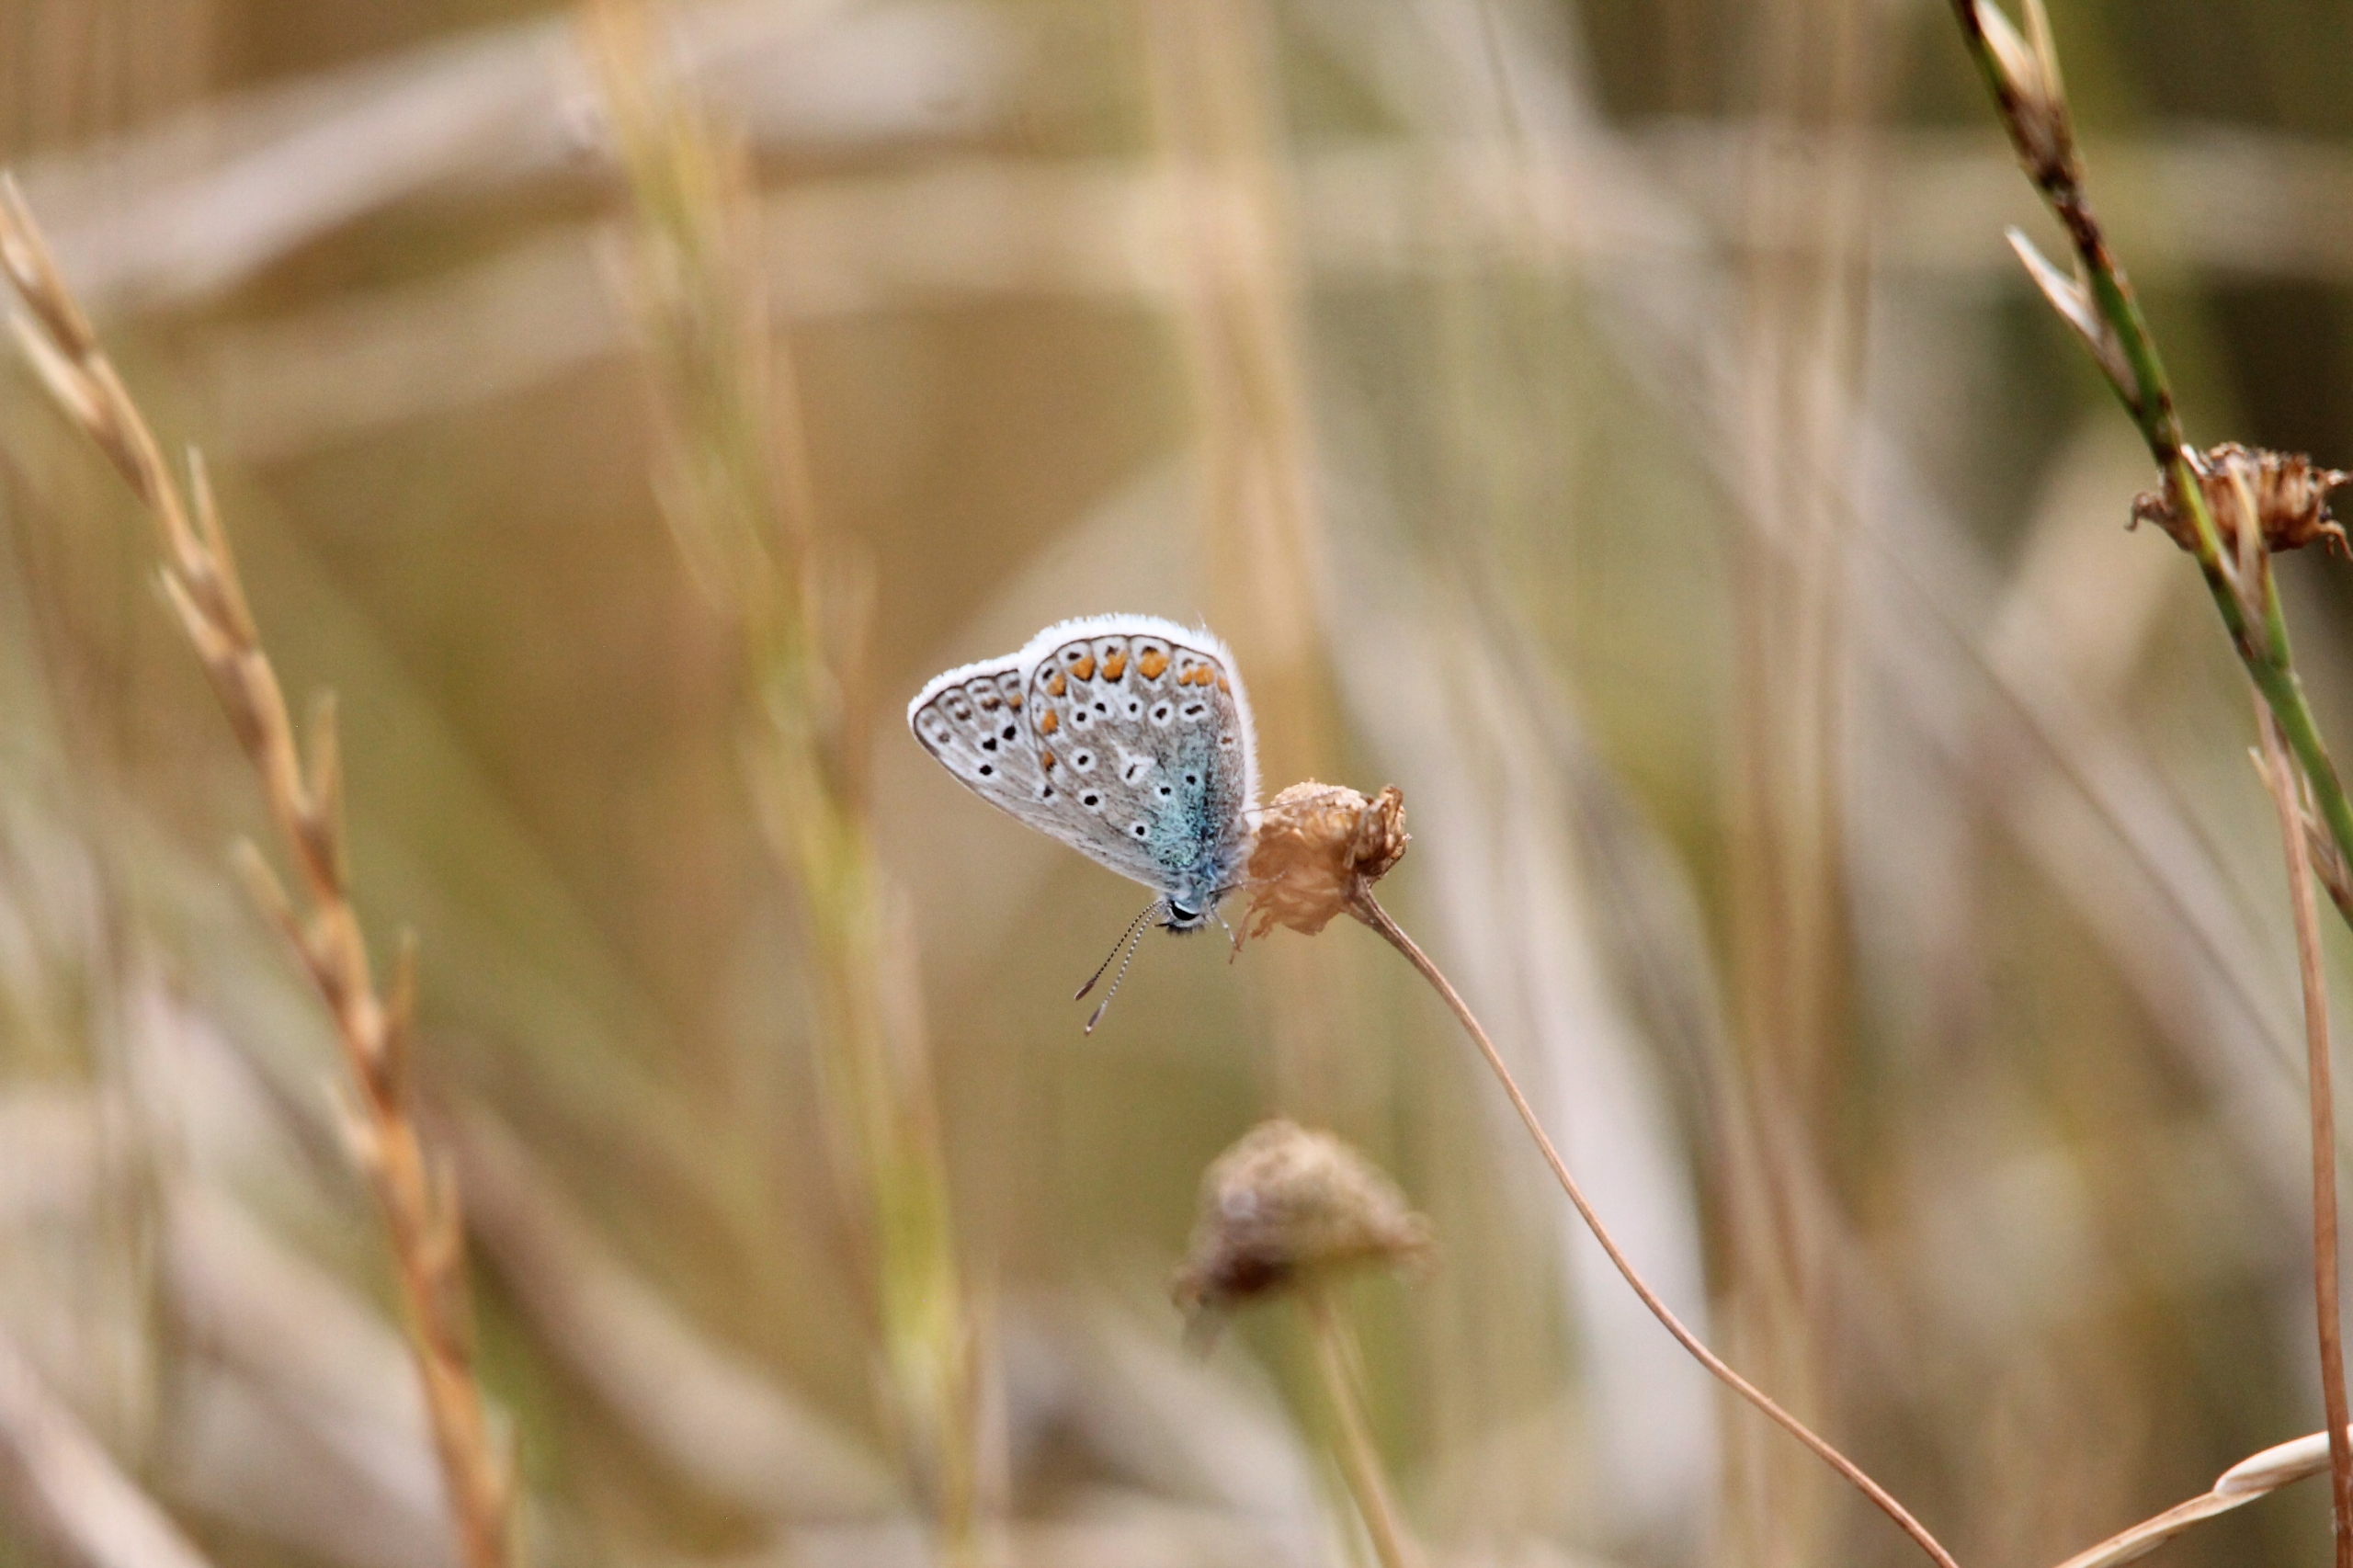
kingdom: Animalia
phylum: Arthropoda
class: Insecta
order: Lepidoptera
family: Lycaenidae
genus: Polyommatus
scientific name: Polyommatus icarus
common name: Almindelig blåfugl
